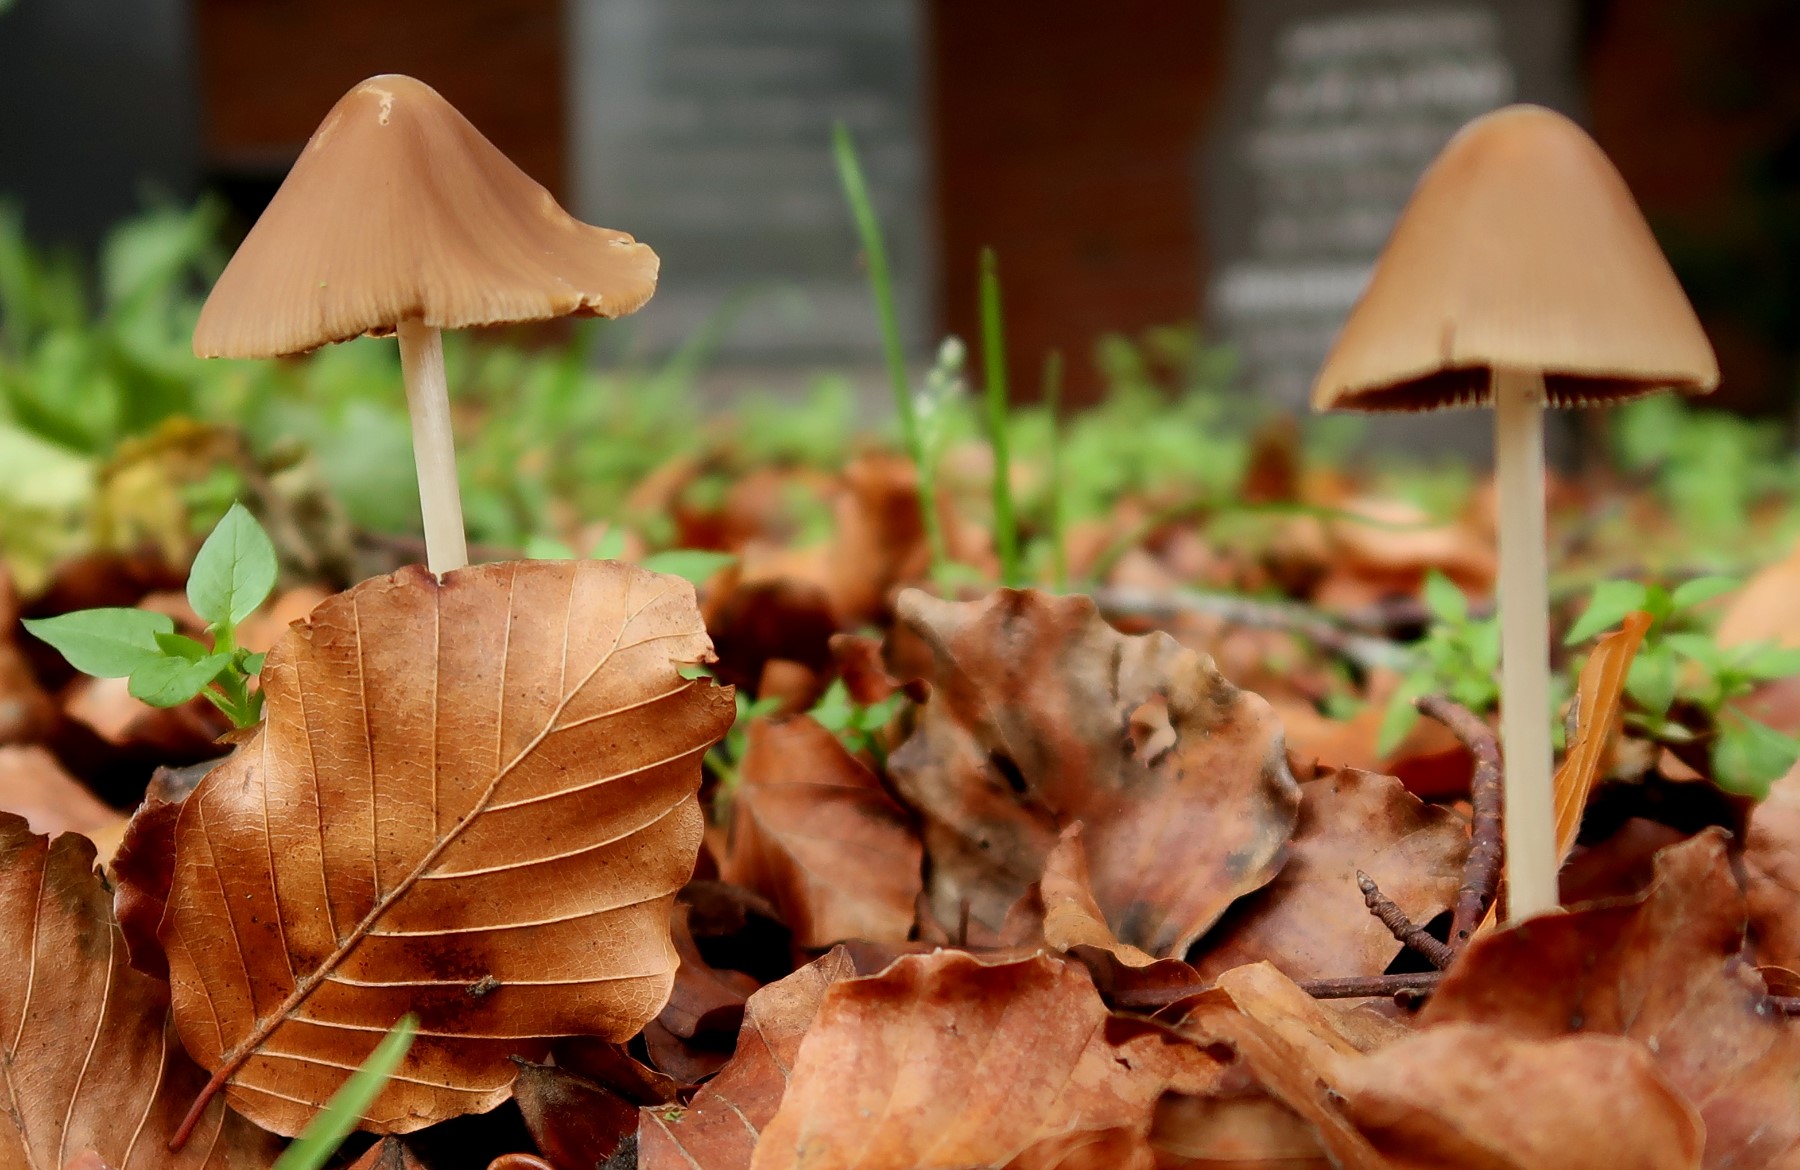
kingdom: Fungi
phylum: Basidiomycota
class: Agaricomycetes
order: Agaricales
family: Psathyrellaceae
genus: Parasola
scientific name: Parasola conopilea
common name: kegle-hjulhat
